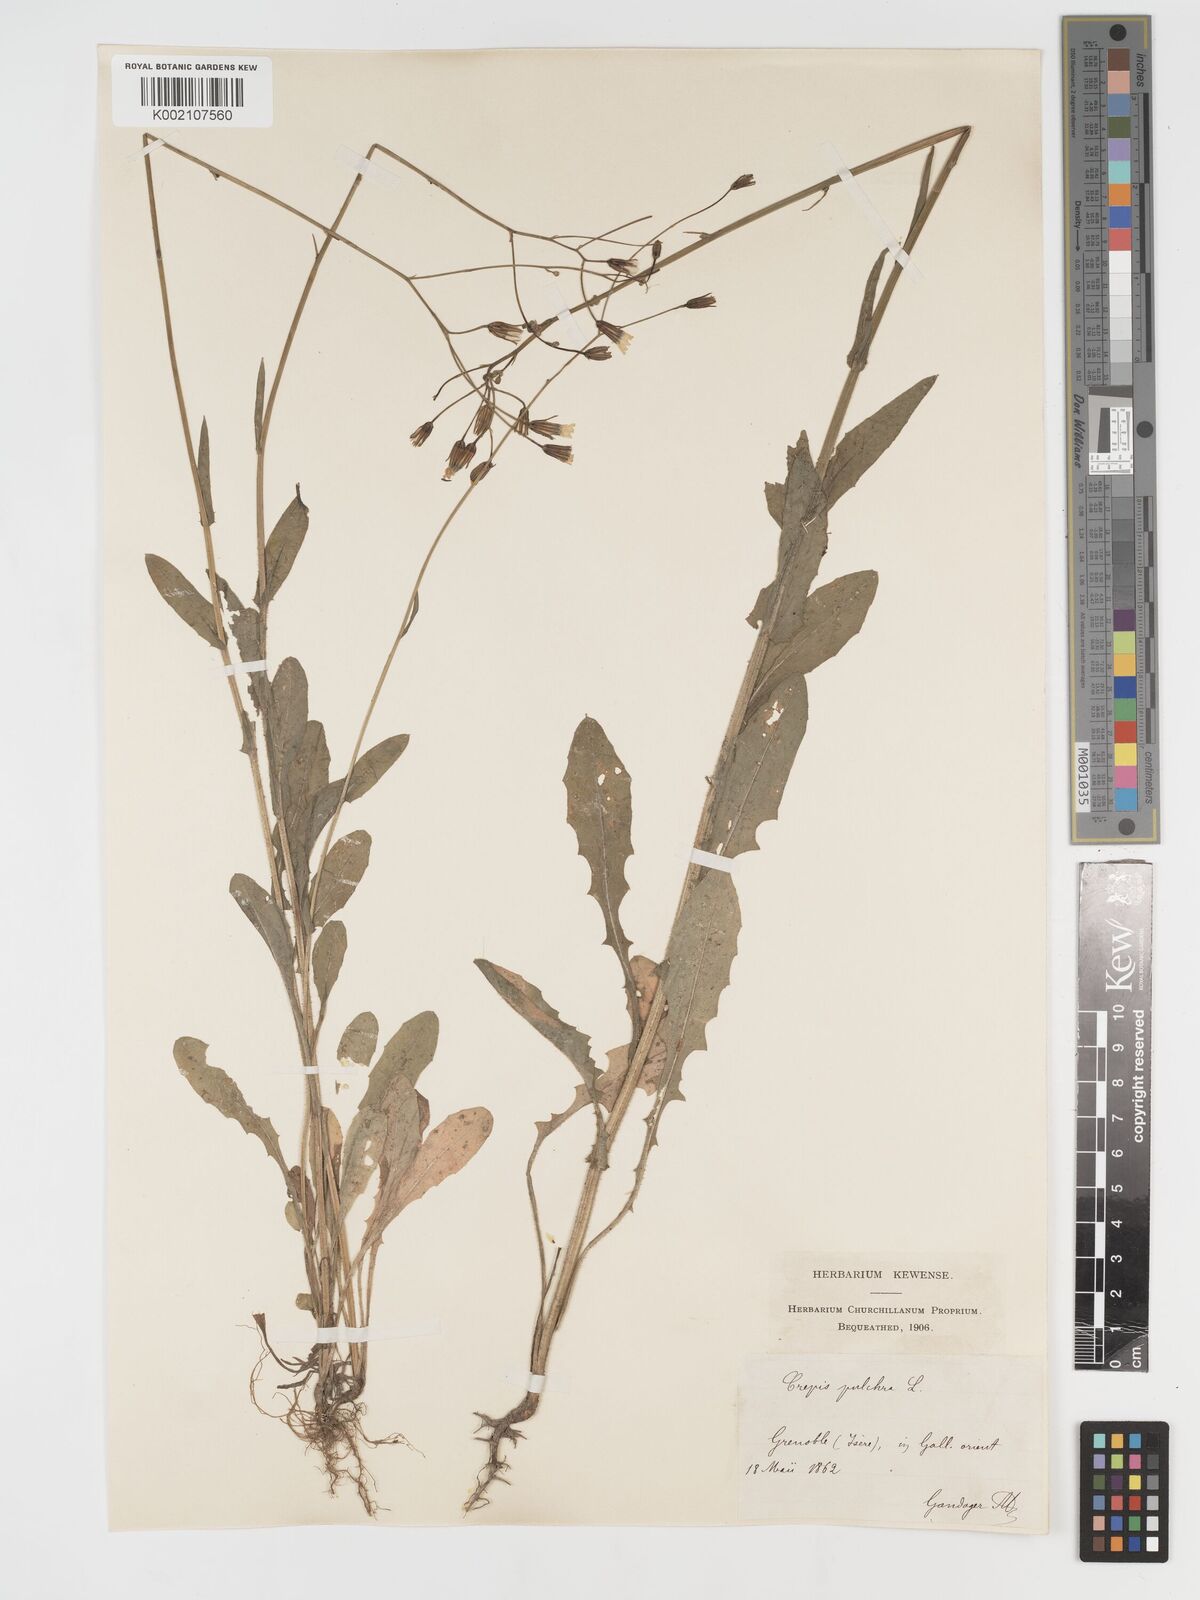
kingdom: Plantae
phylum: Tracheophyta
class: Magnoliopsida
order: Asterales
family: Asteraceae
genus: Crepis
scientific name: Crepis pulchra
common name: Hawk's-beard
